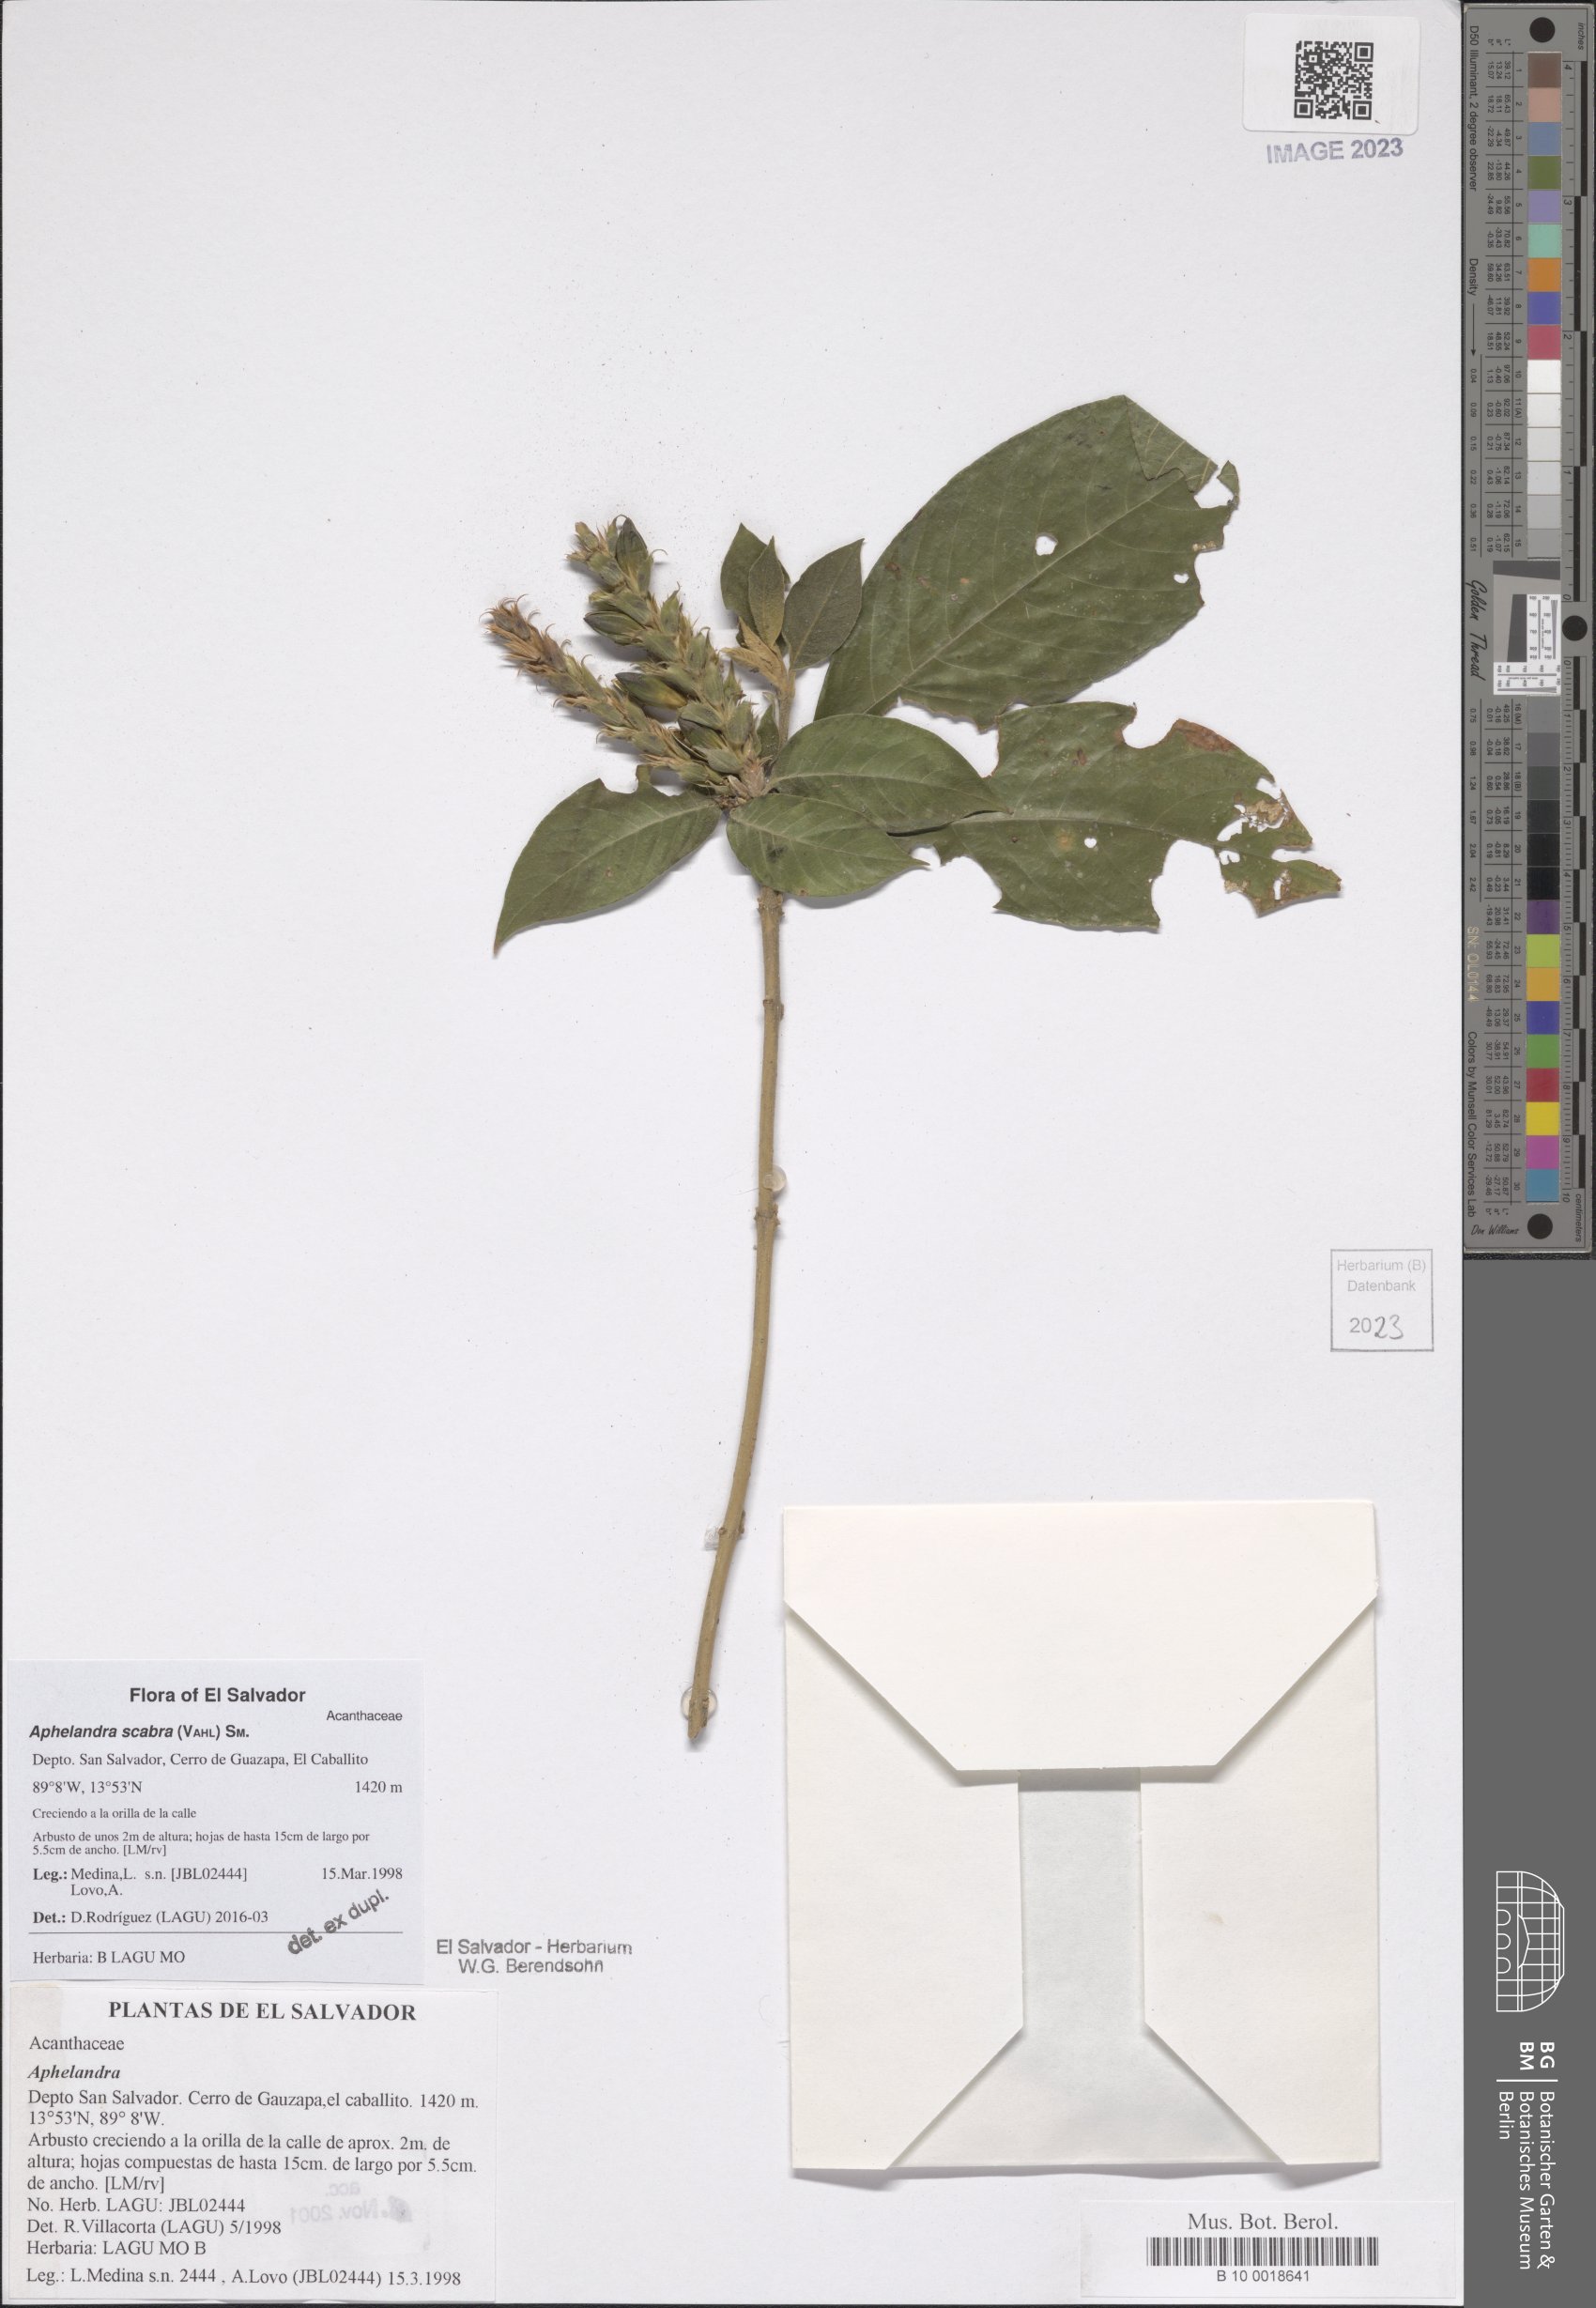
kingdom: Plantae
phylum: Tracheophyta
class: Magnoliopsida
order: Lamiales
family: Acanthaceae
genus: Aphelandra
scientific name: Aphelandra scabra
